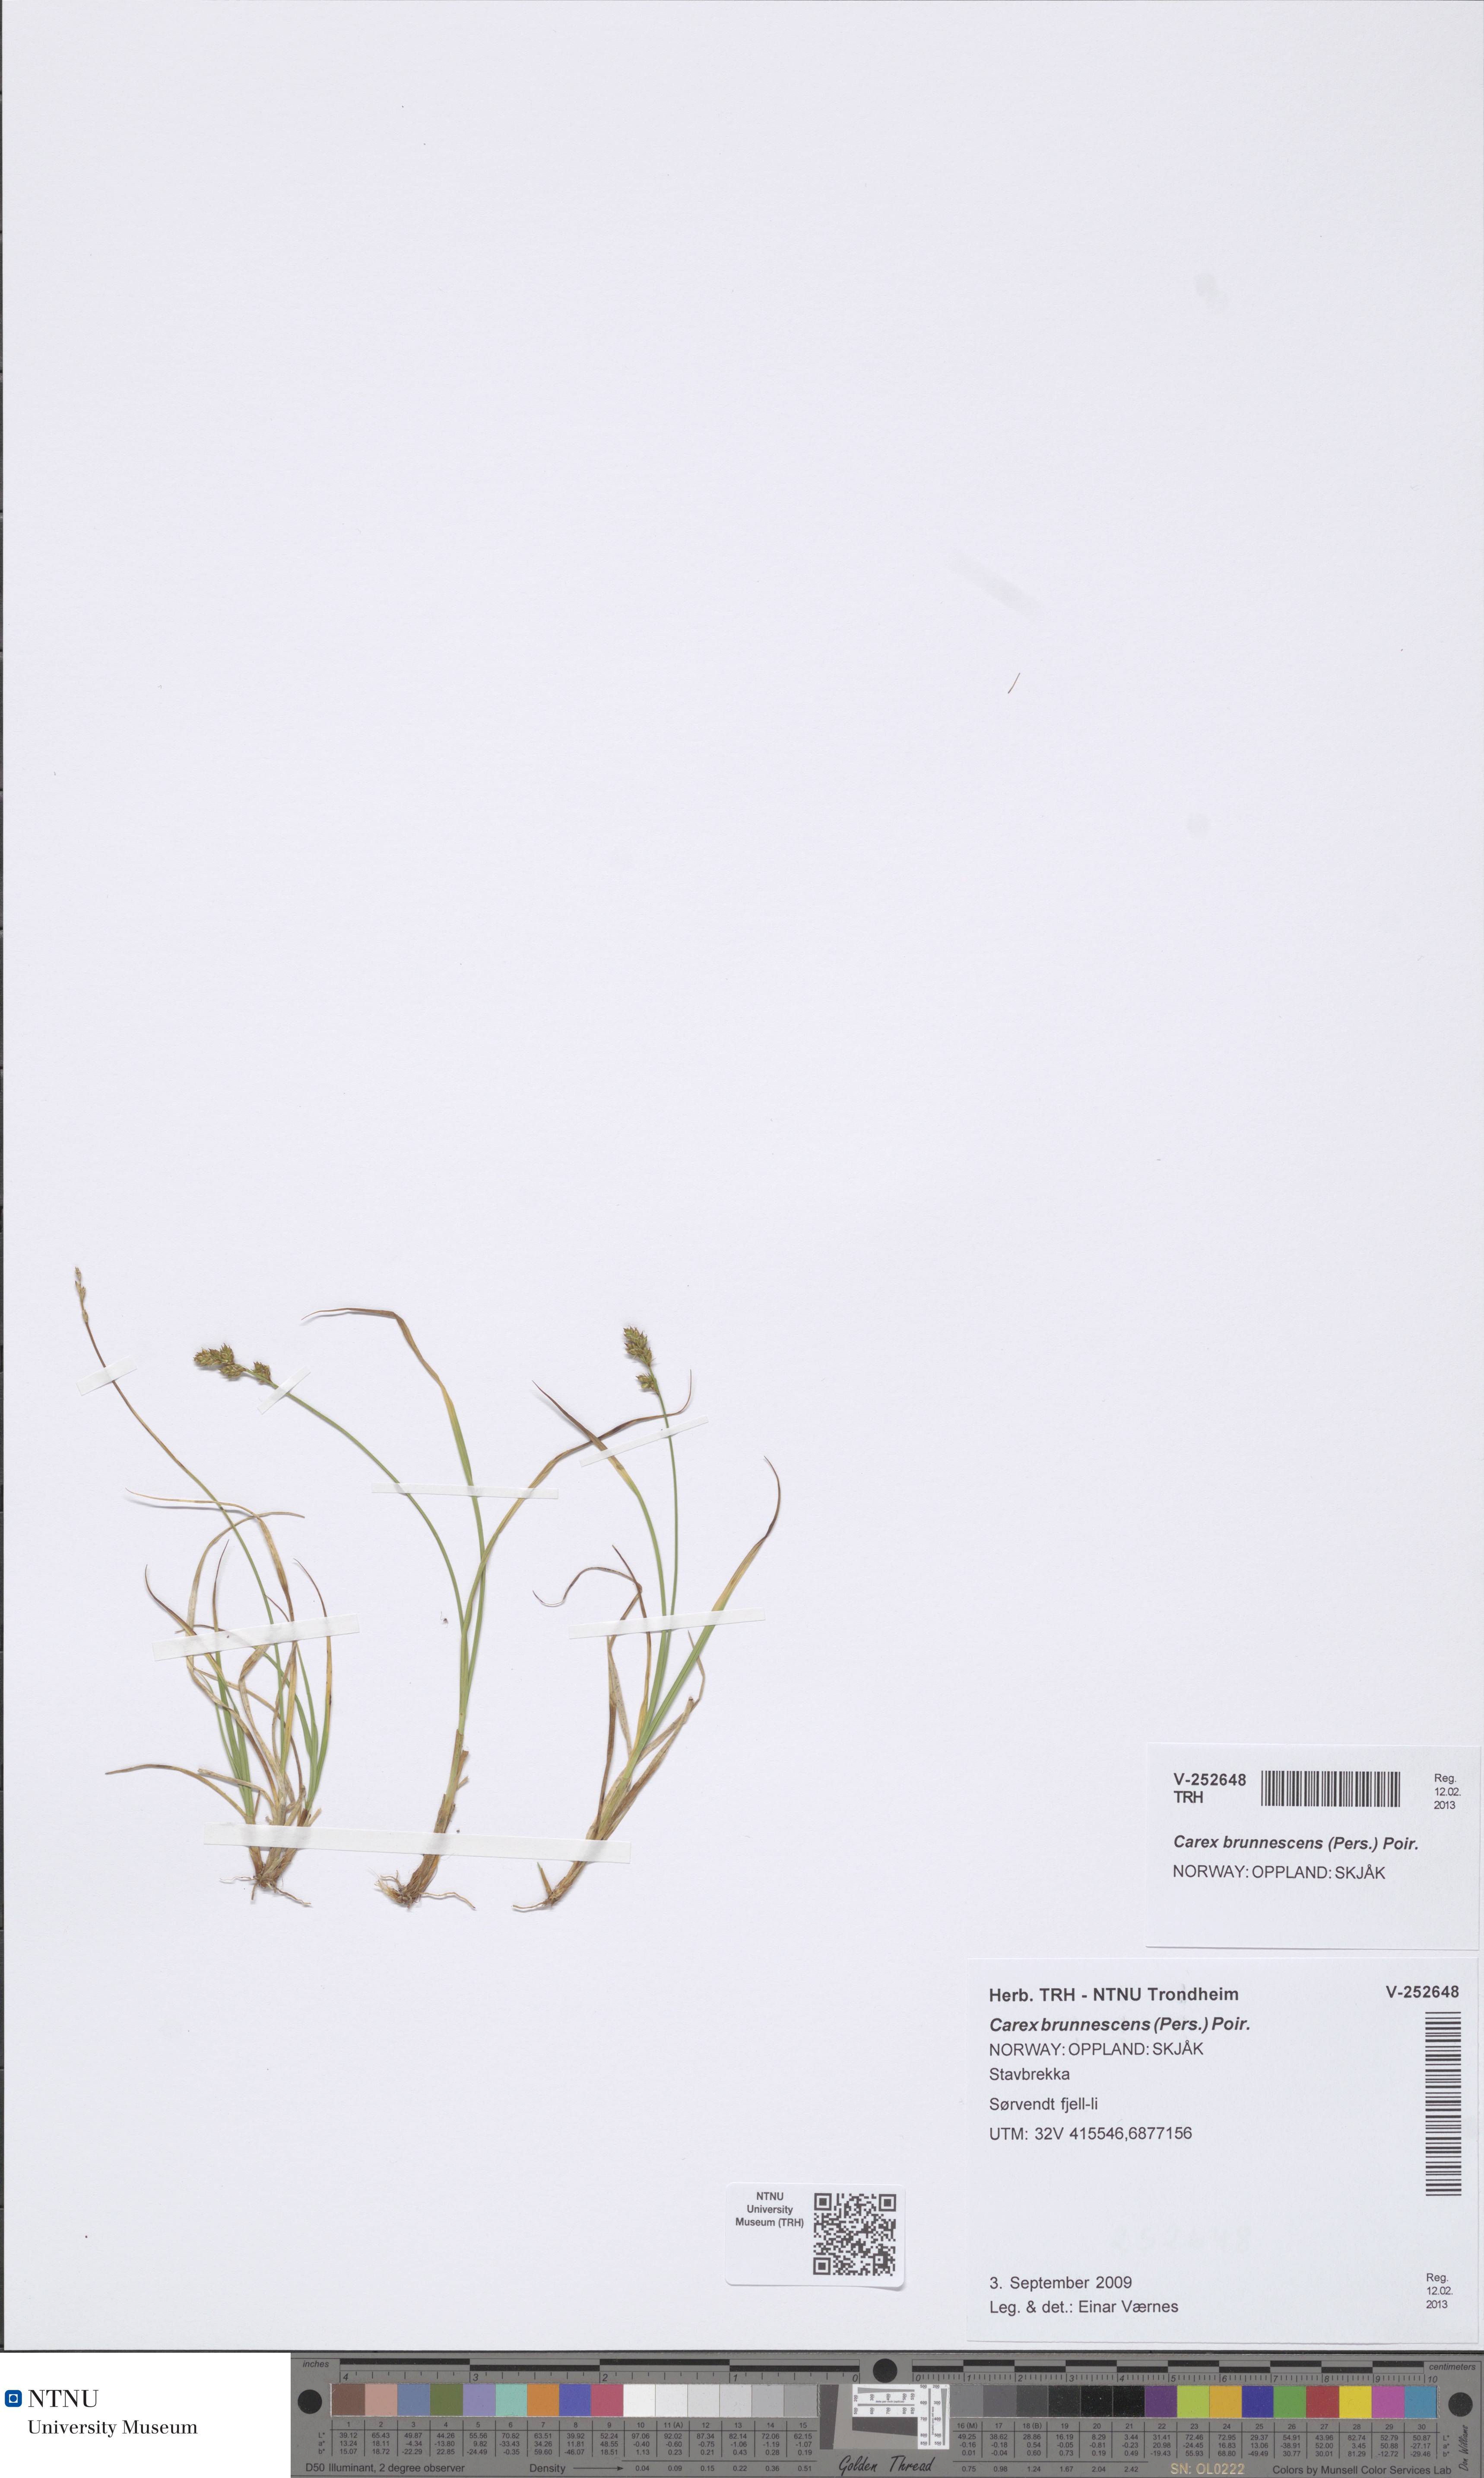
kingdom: Plantae
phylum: Tracheophyta
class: Liliopsida
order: Poales
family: Cyperaceae
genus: Carex
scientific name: Carex brunnescens
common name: Brown sedge
